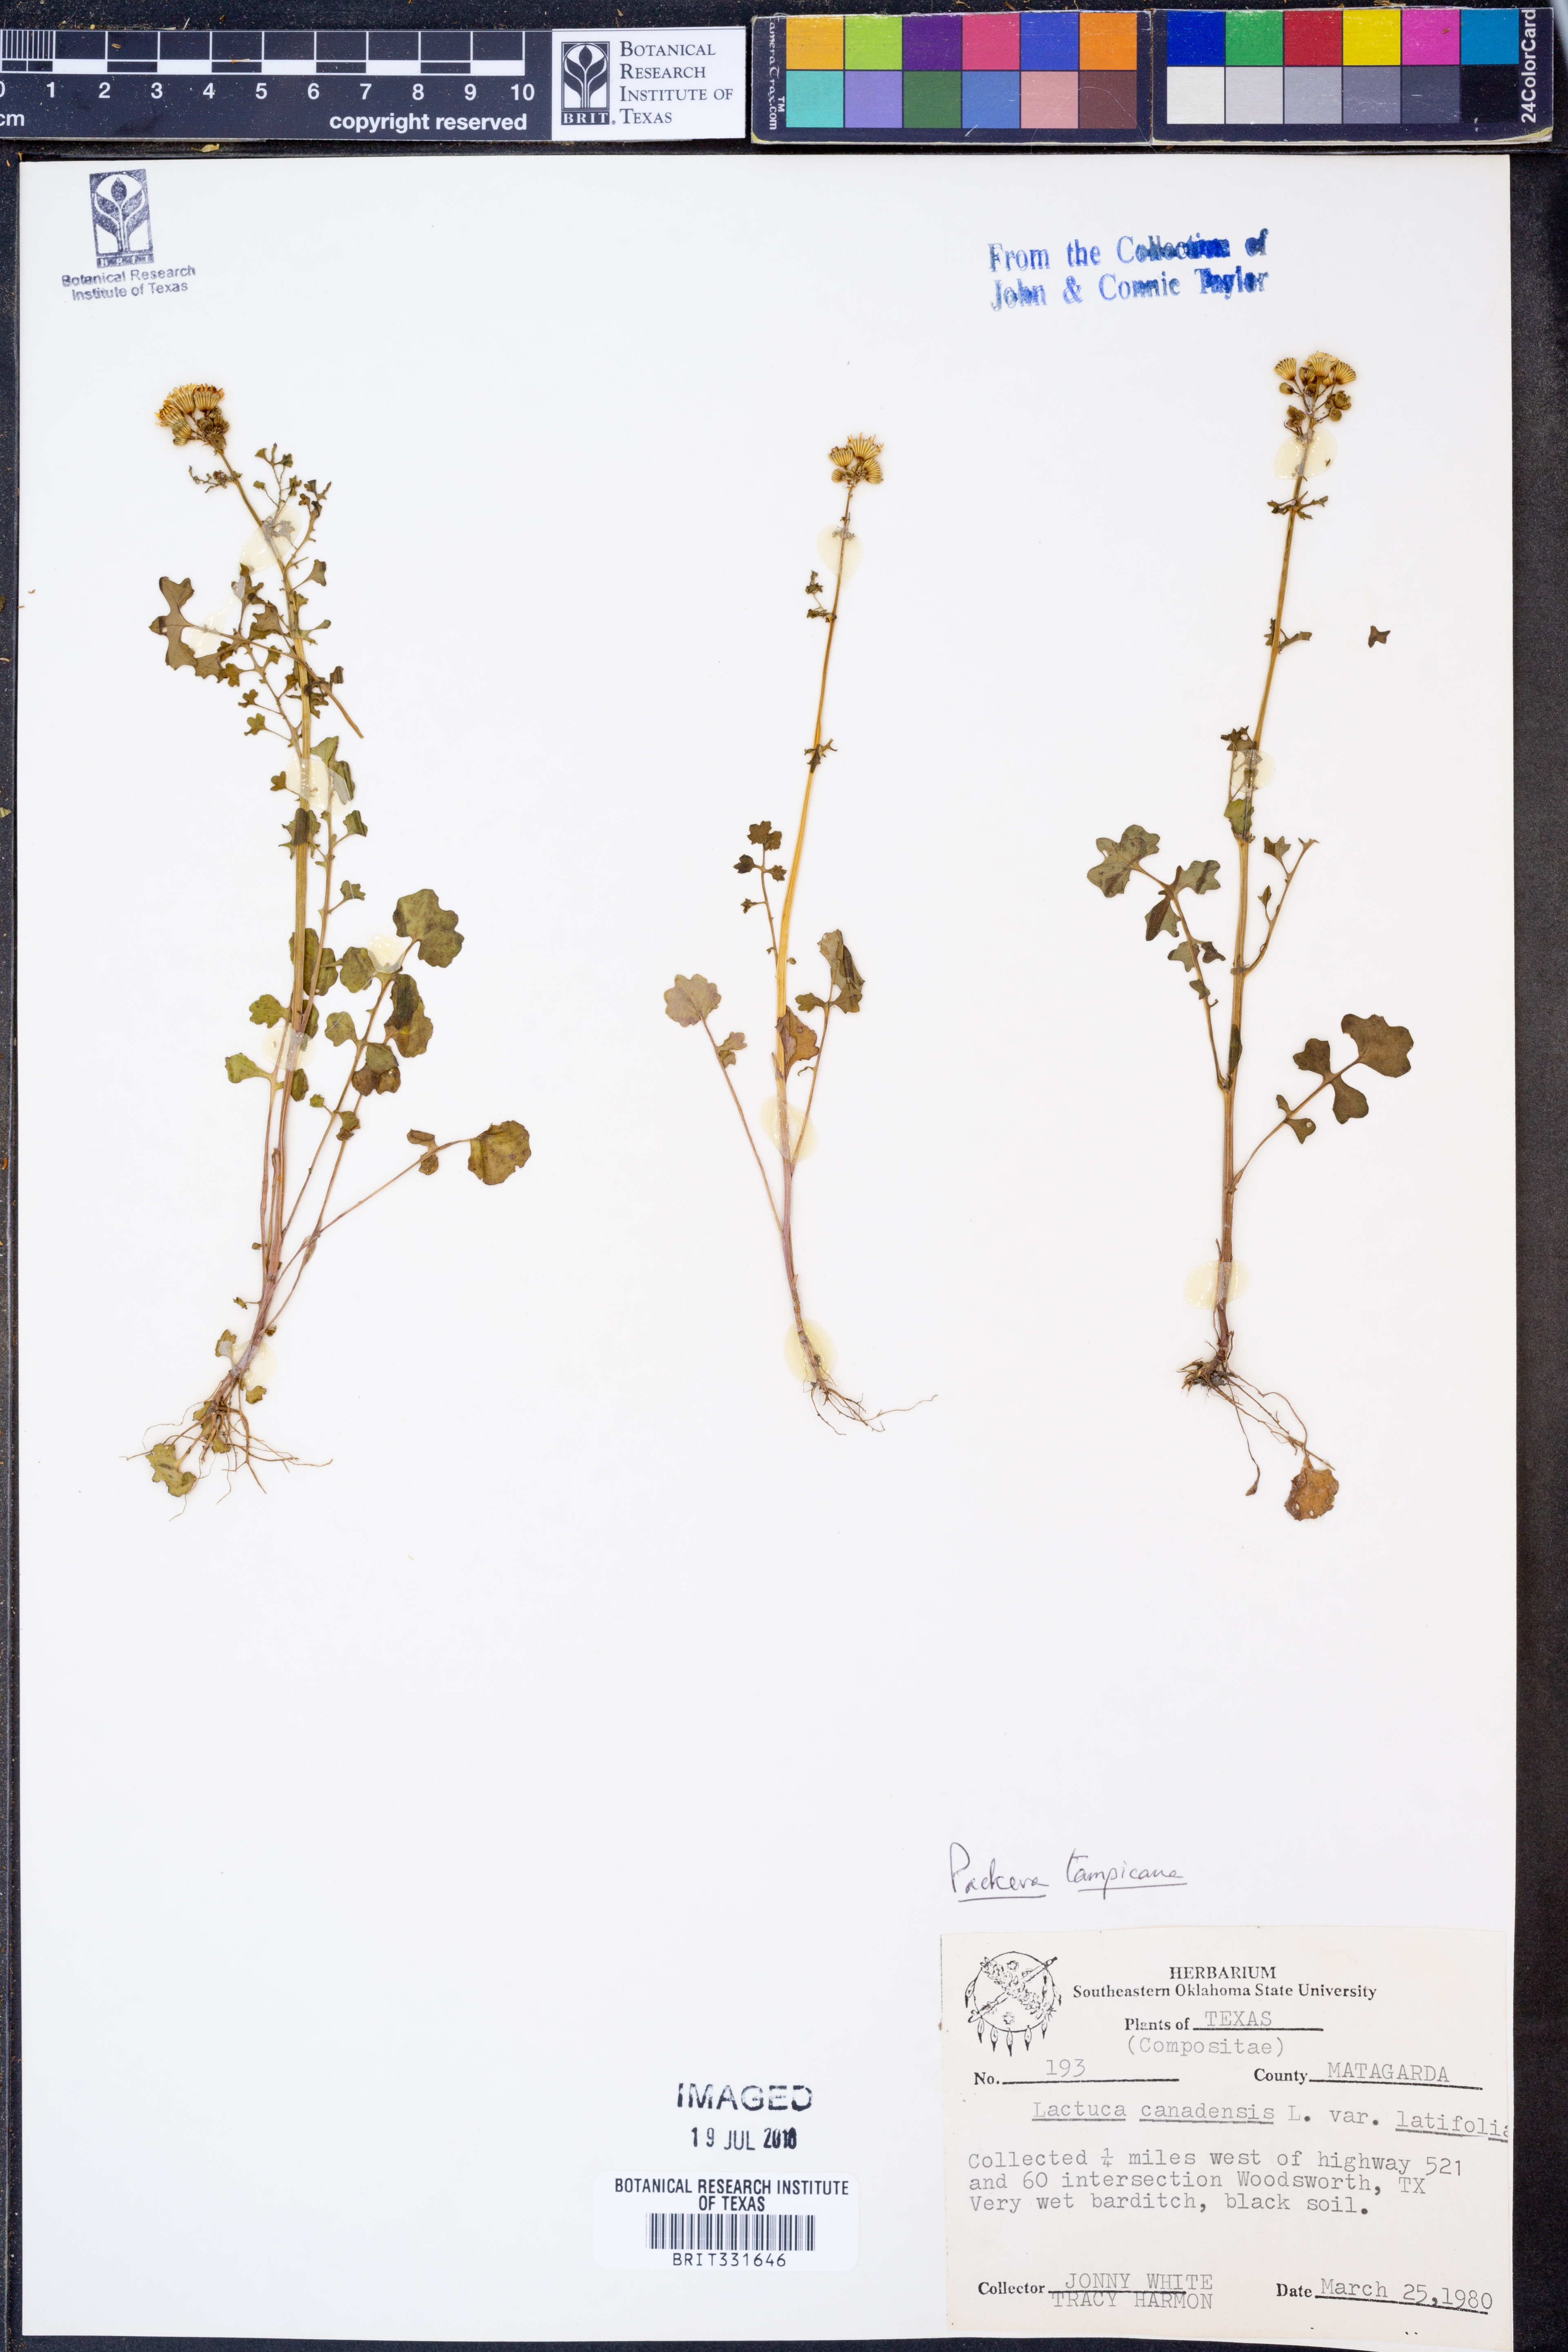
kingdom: Plantae
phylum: Tracheophyta
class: Magnoliopsida
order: Asterales
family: Asteraceae
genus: Packera
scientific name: Packera tampicana
